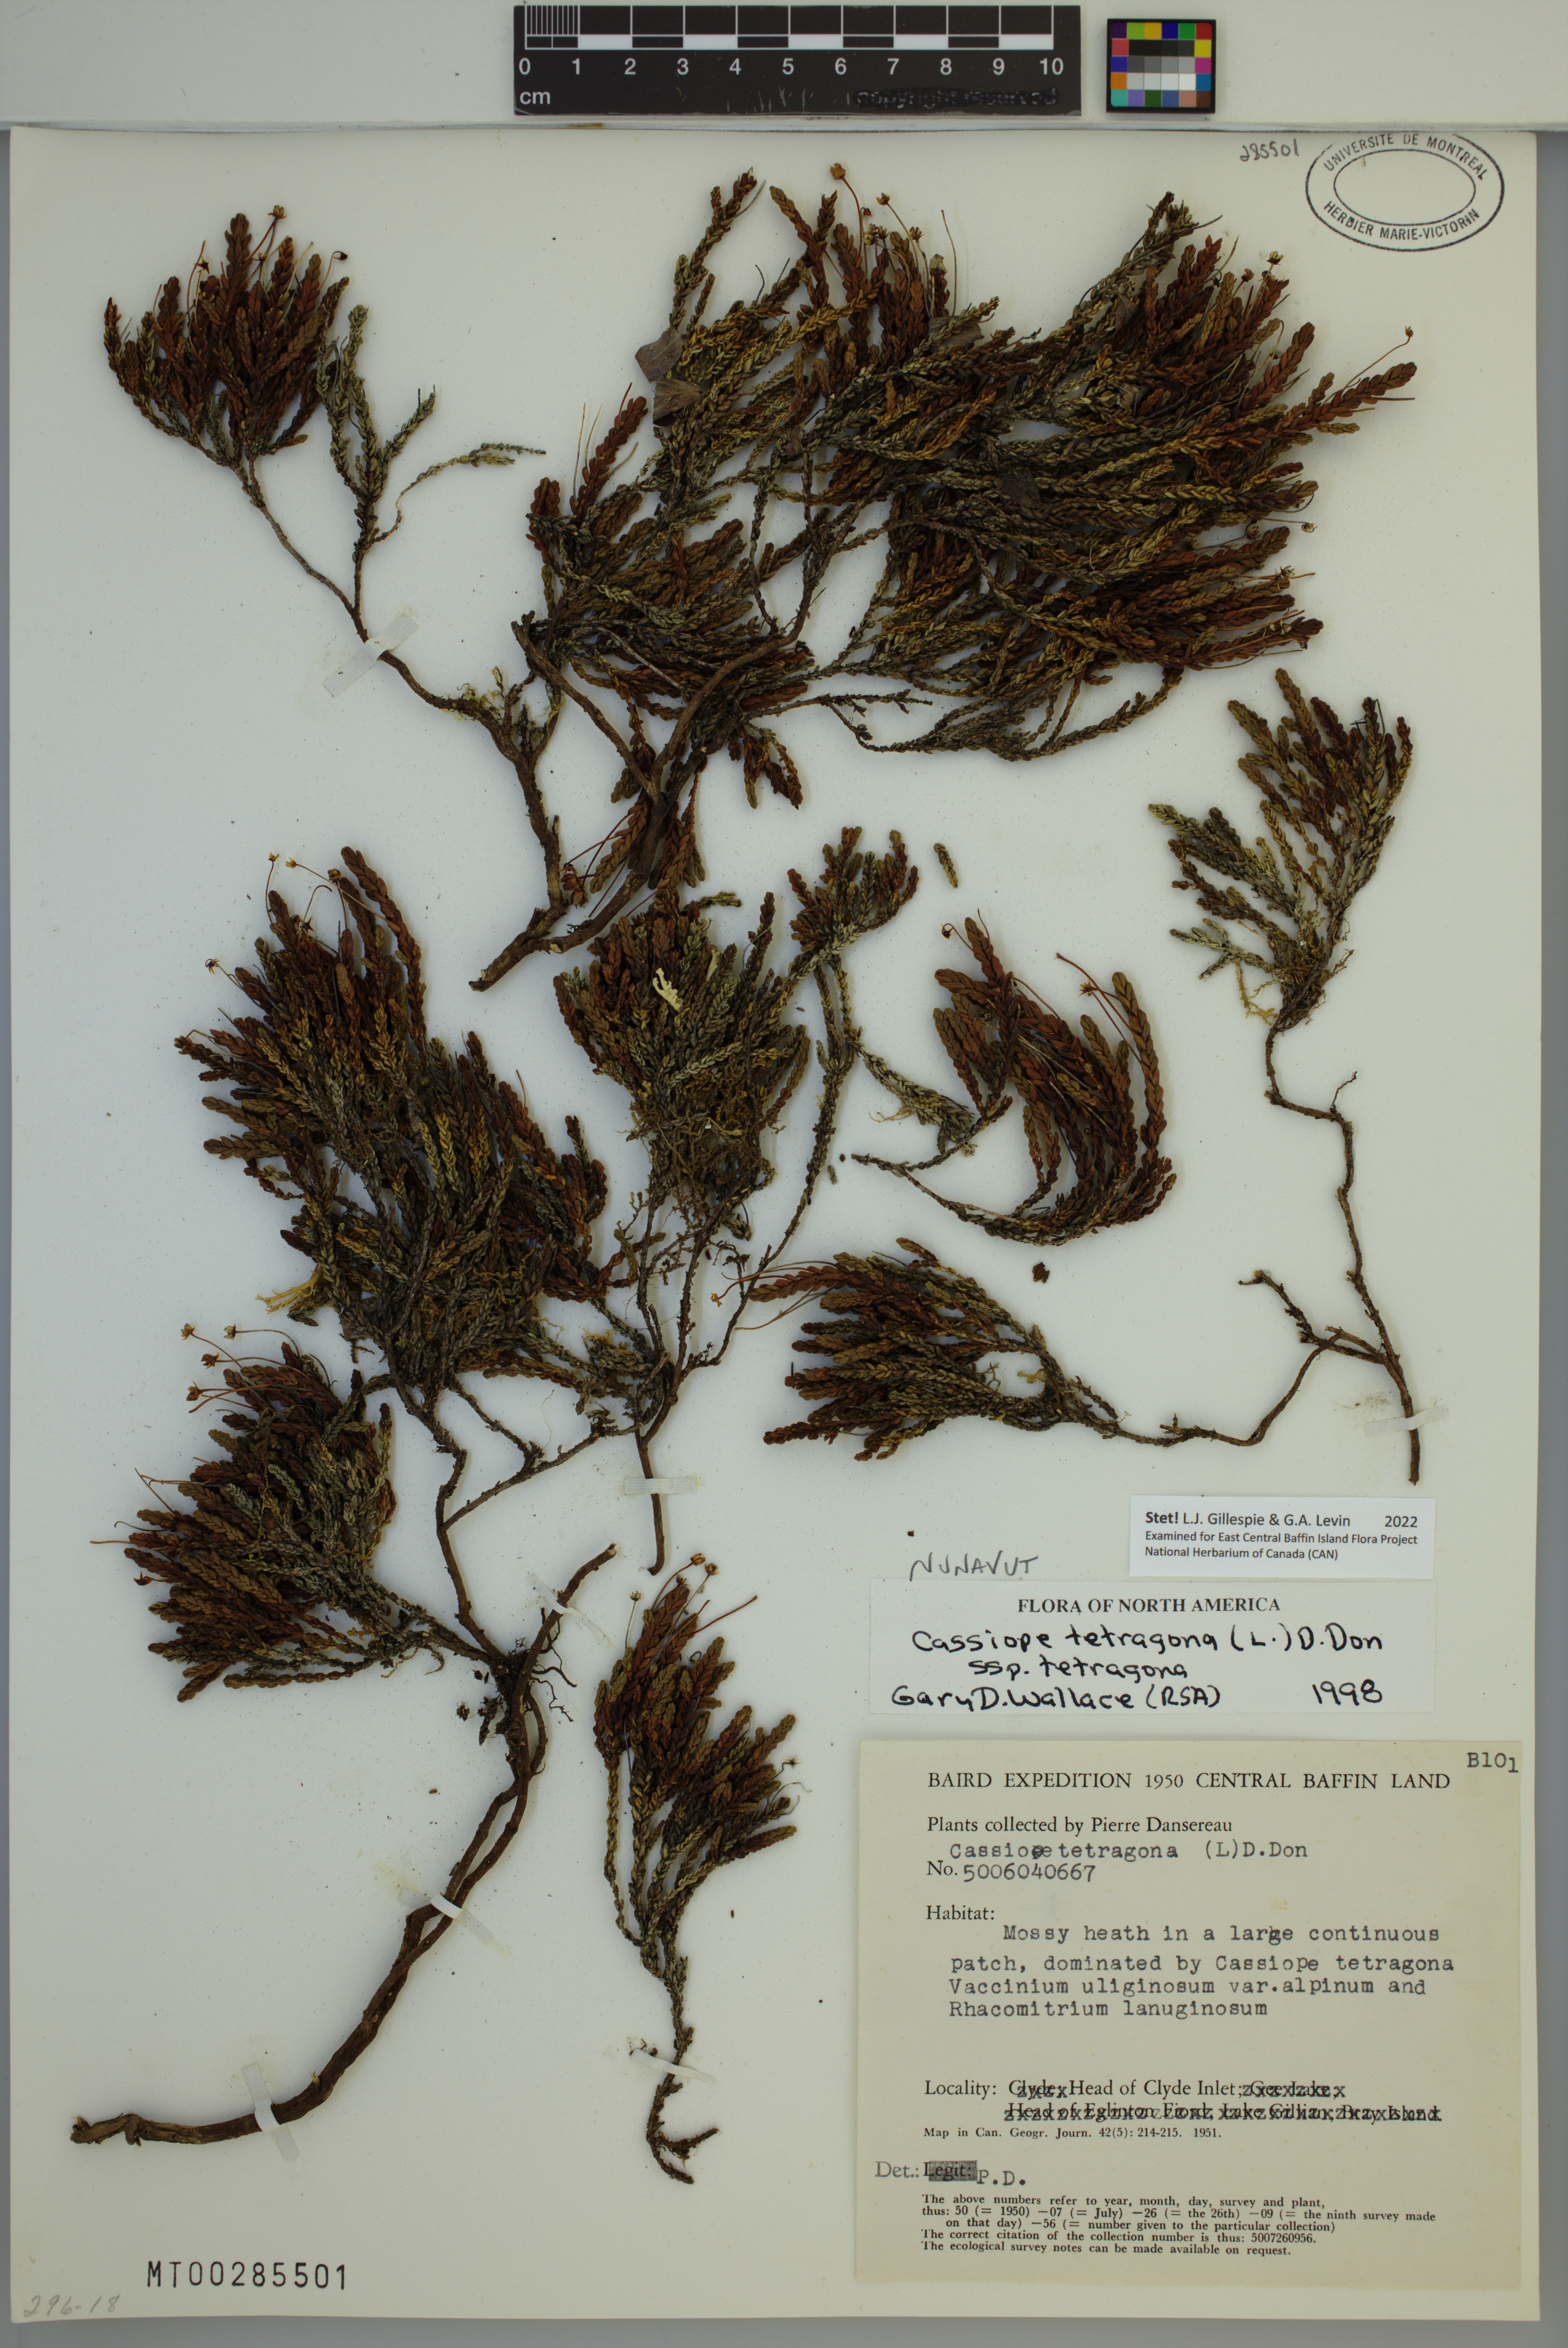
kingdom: Plantae
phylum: Tracheophyta
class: Magnoliopsida
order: Ericales
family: Ericaceae
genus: Cassiope
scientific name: Cassiope tetragona
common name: Arctic bell heather
